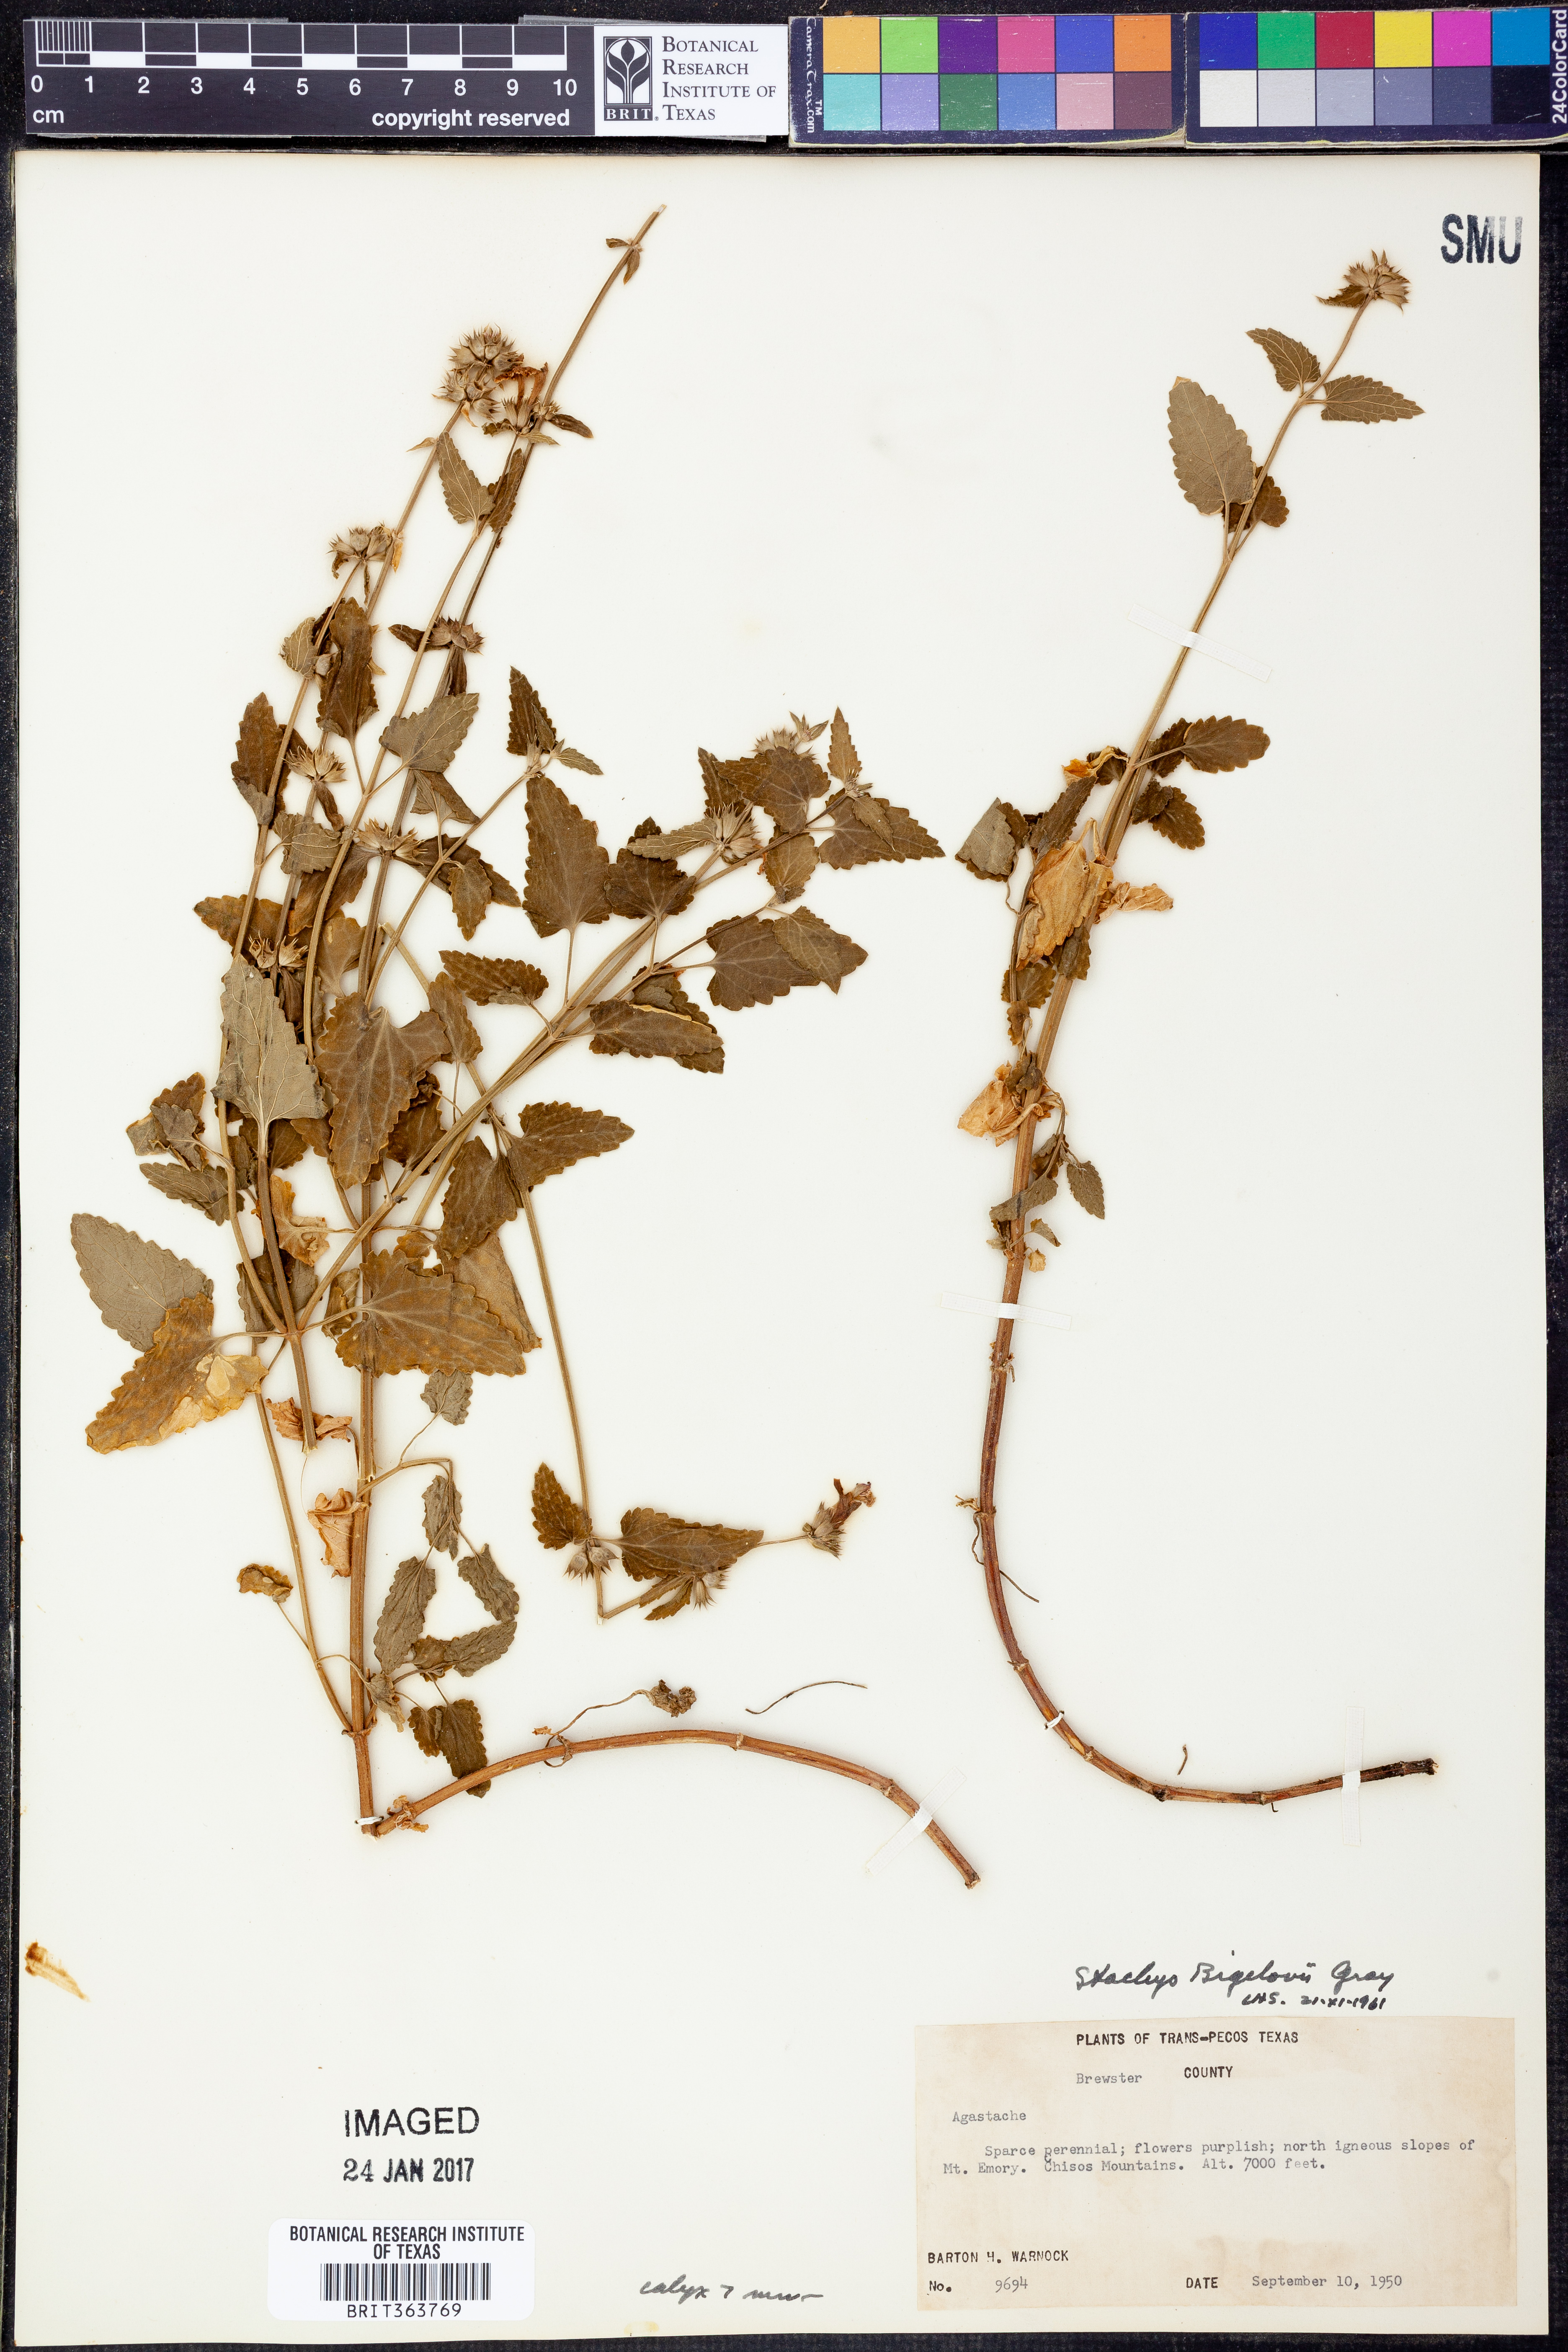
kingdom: Plantae
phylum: Tracheophyta
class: Magnoliopsida
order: Lamiales
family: Lamiaceae
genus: Stachys
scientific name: Stachys bigelovii
